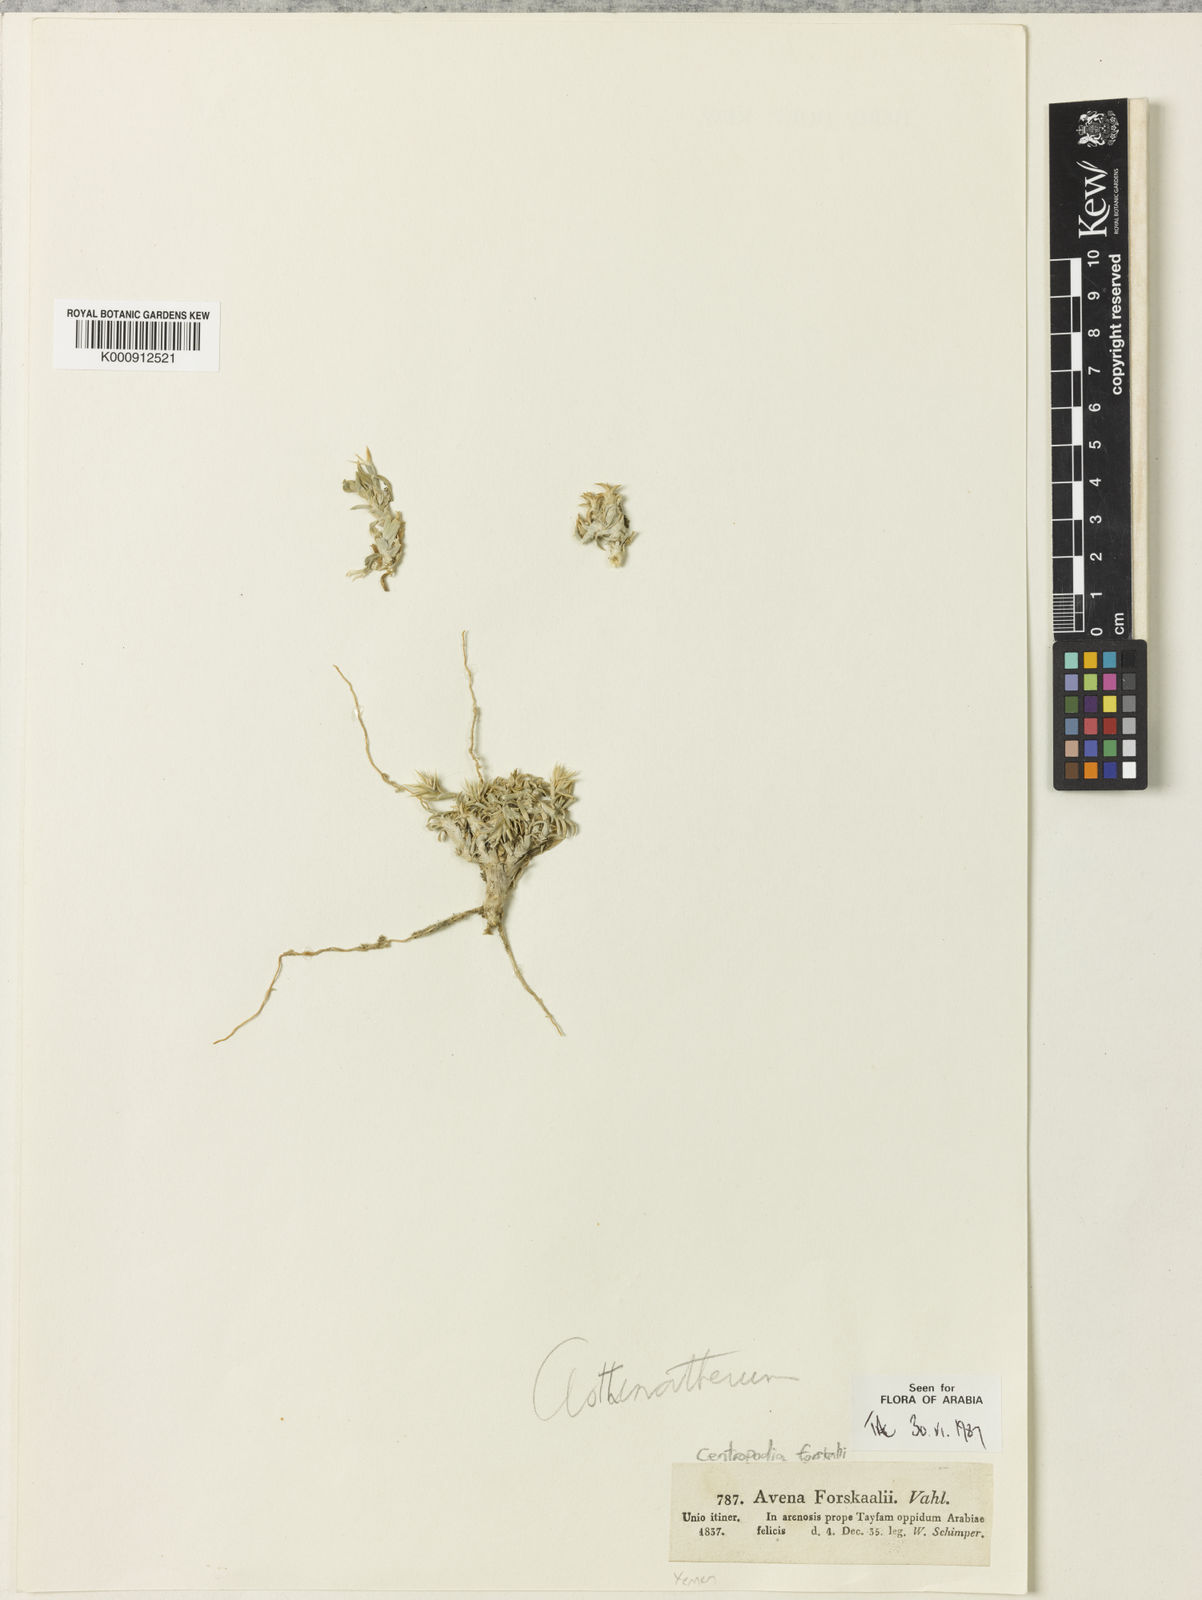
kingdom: Plantae
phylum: Tracheophyta
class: Liliopsida
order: Poales
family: Poaceae
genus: Centropodia
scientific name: Centropodia forskaolii
